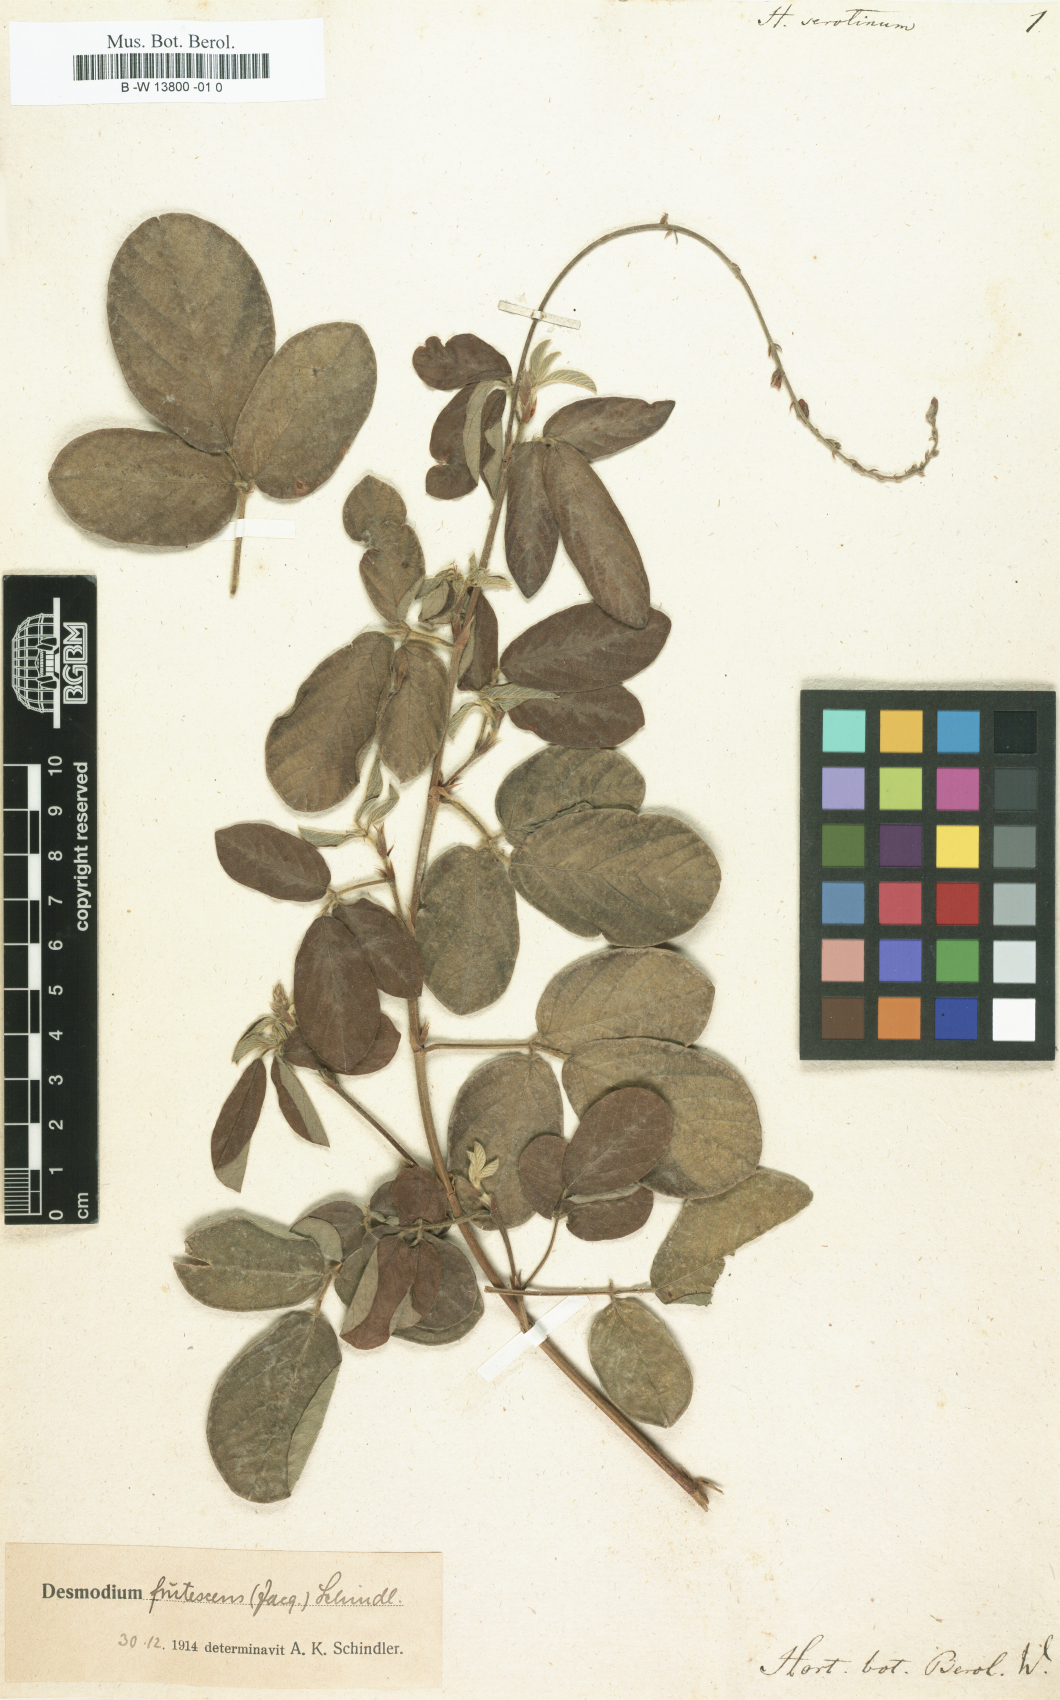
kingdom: Plantae
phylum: Tracheophyta
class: Magnoliopsida
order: Fabales
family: Fabaceae
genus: Desmodium
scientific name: Desmodium serotinum
